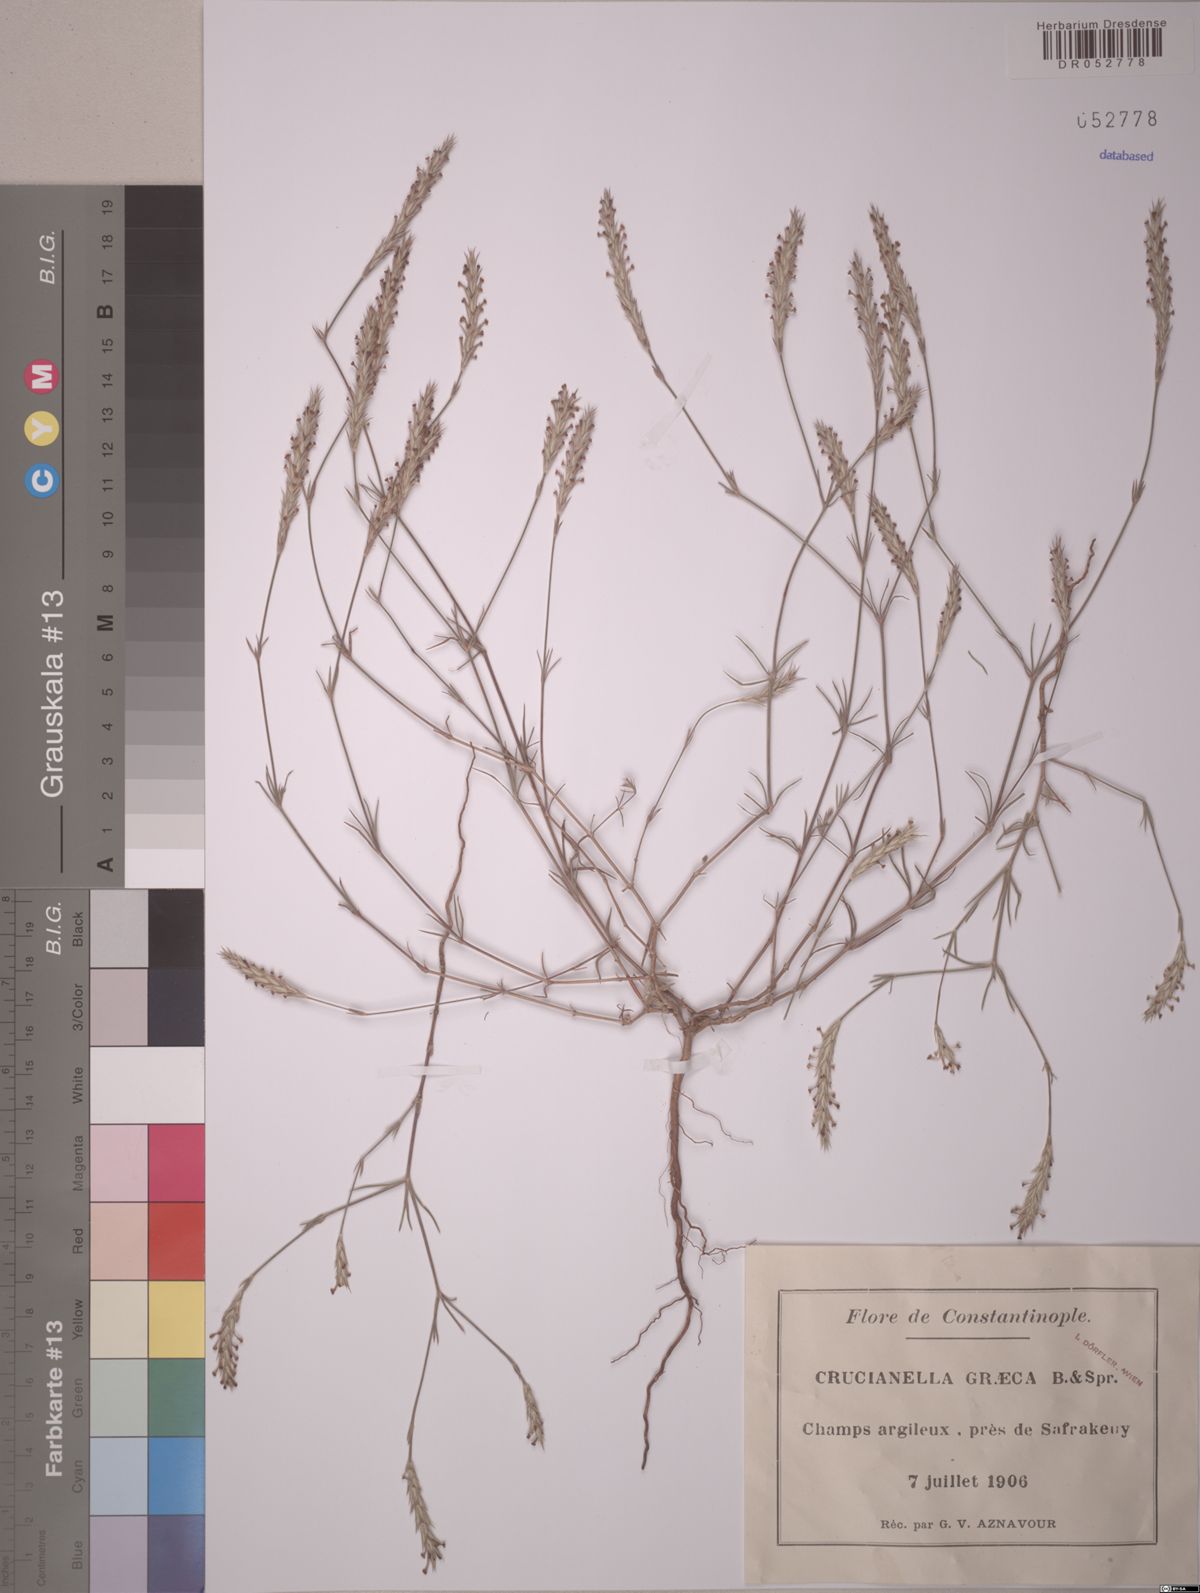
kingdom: Plantae
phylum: Tracheophyta
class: Magnoliopsida
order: Gentianales
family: Rubiaceae
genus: Crucianella
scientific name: Crucianella graeca
